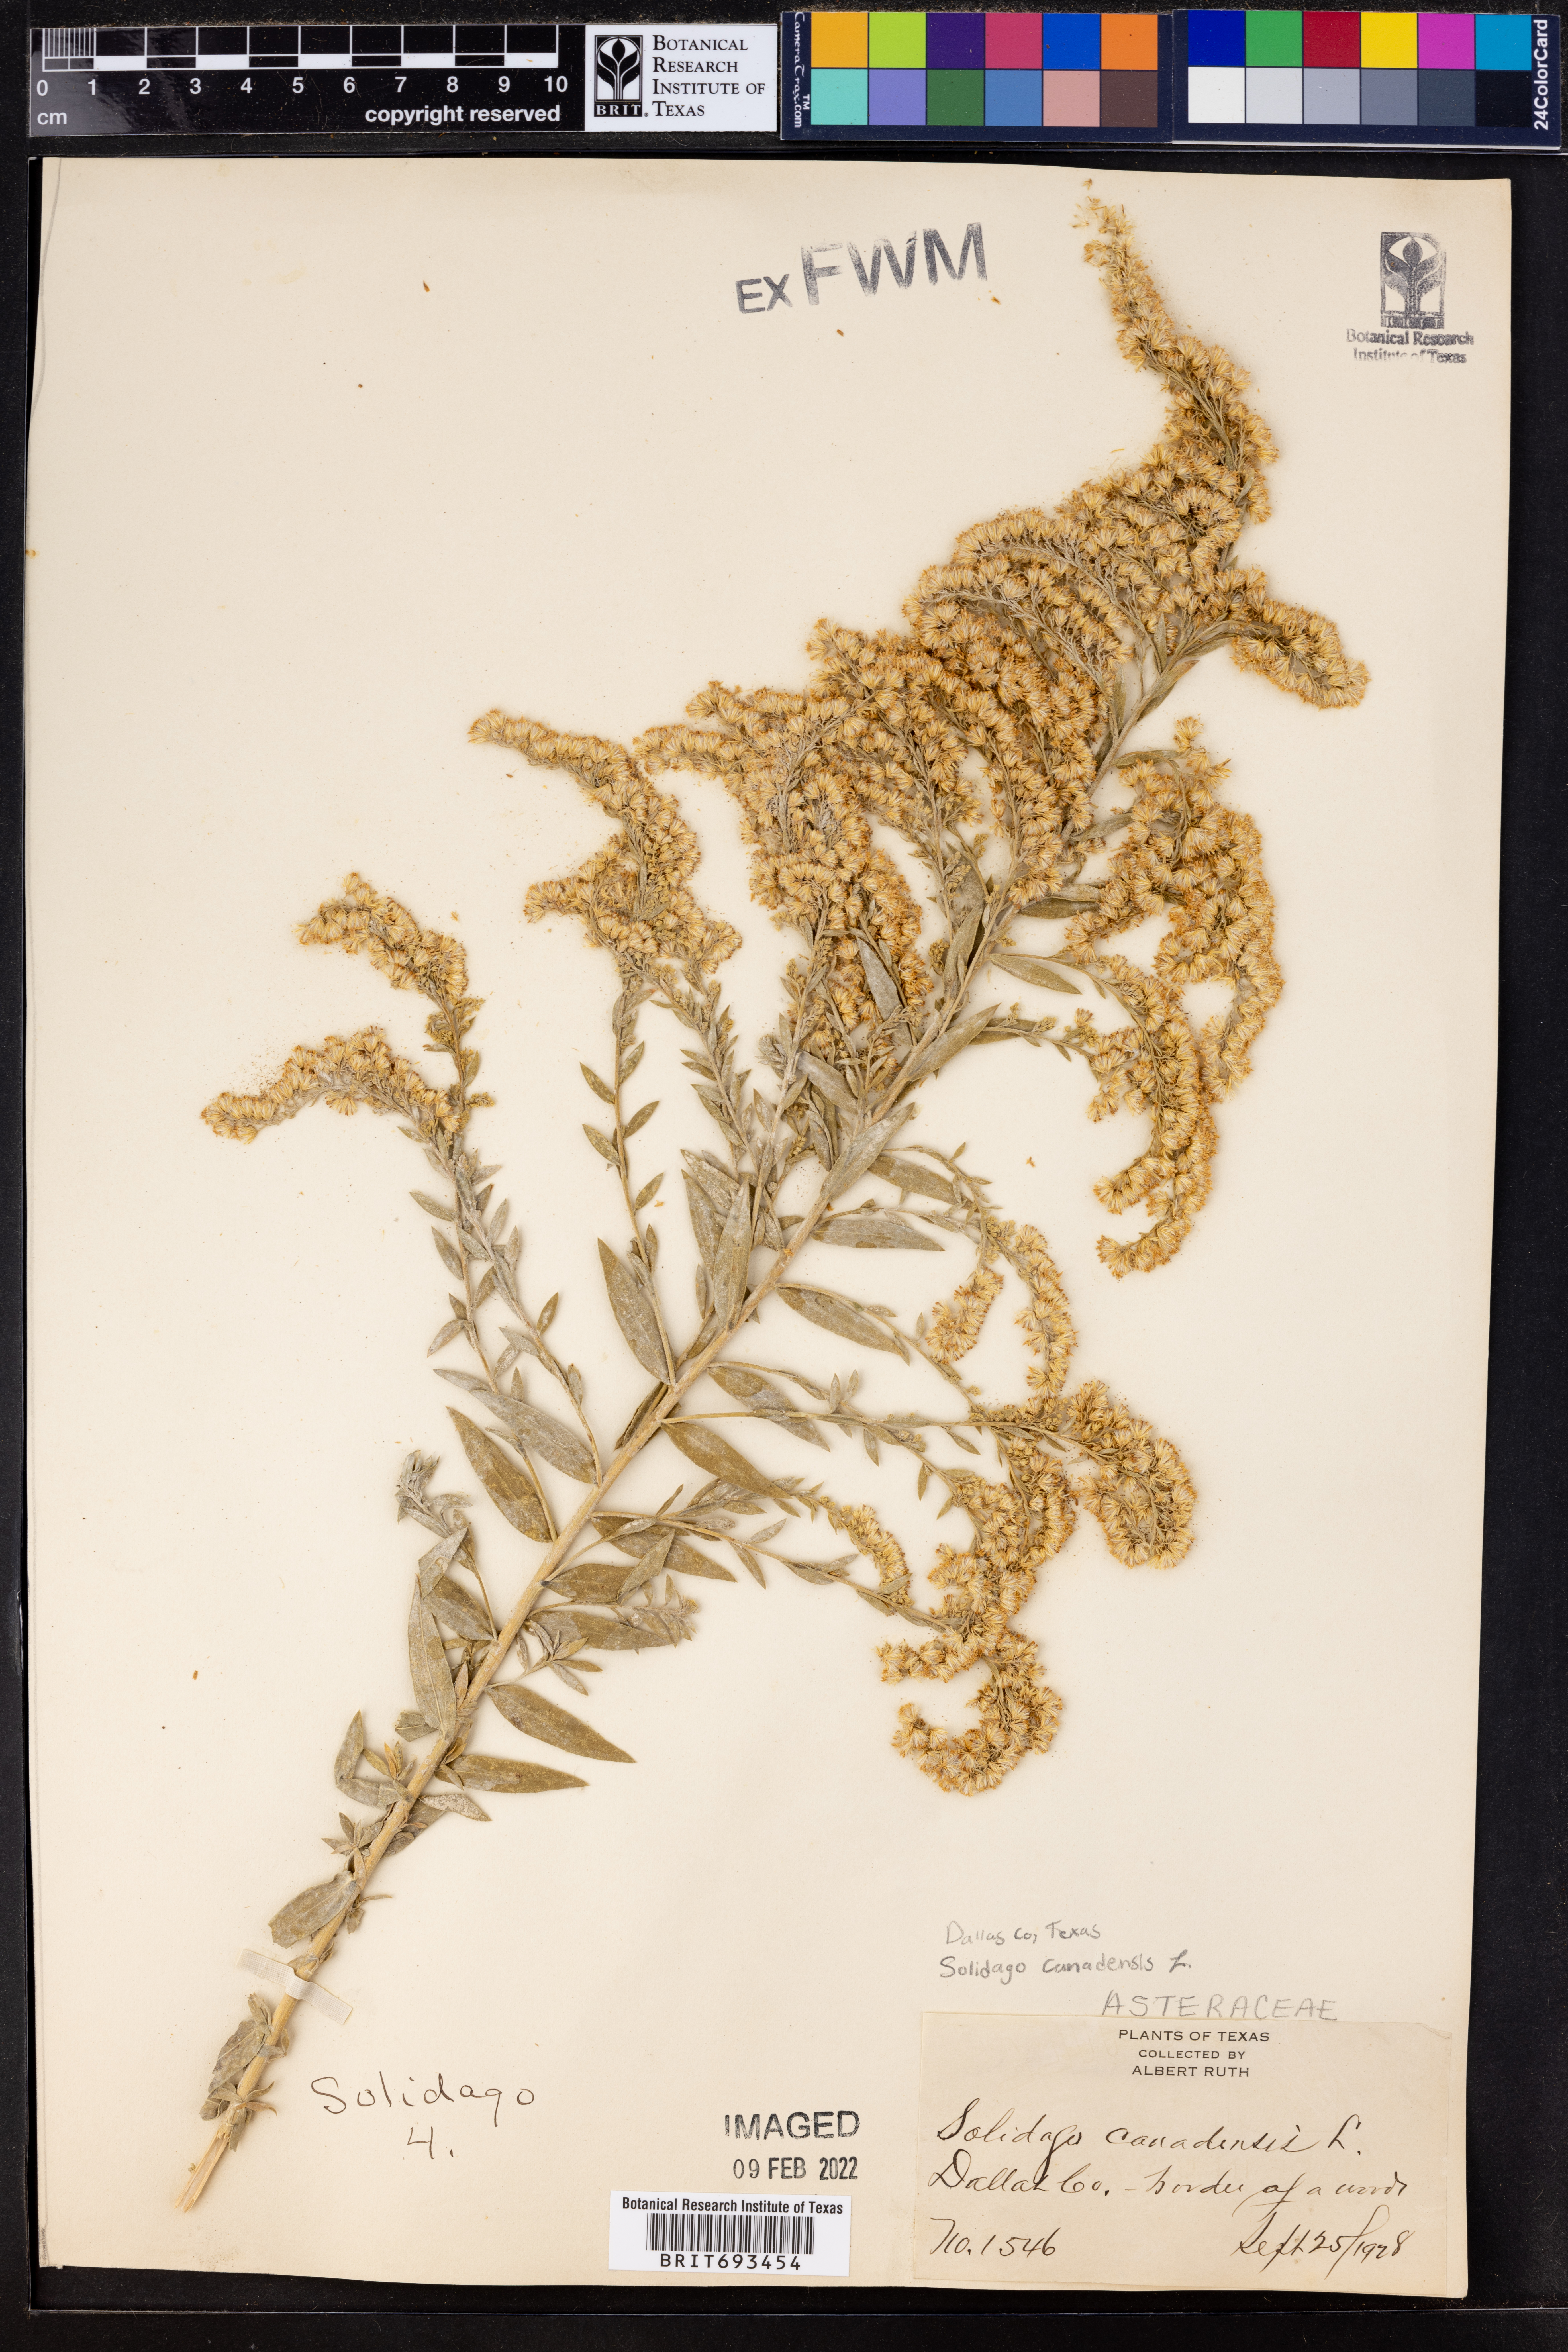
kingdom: Plantae
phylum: Tracheophyta
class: Magnoliopsida
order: Asterales
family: Asteraceae
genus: Solidago
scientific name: Solidago canadensis
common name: Canada goldenrod
